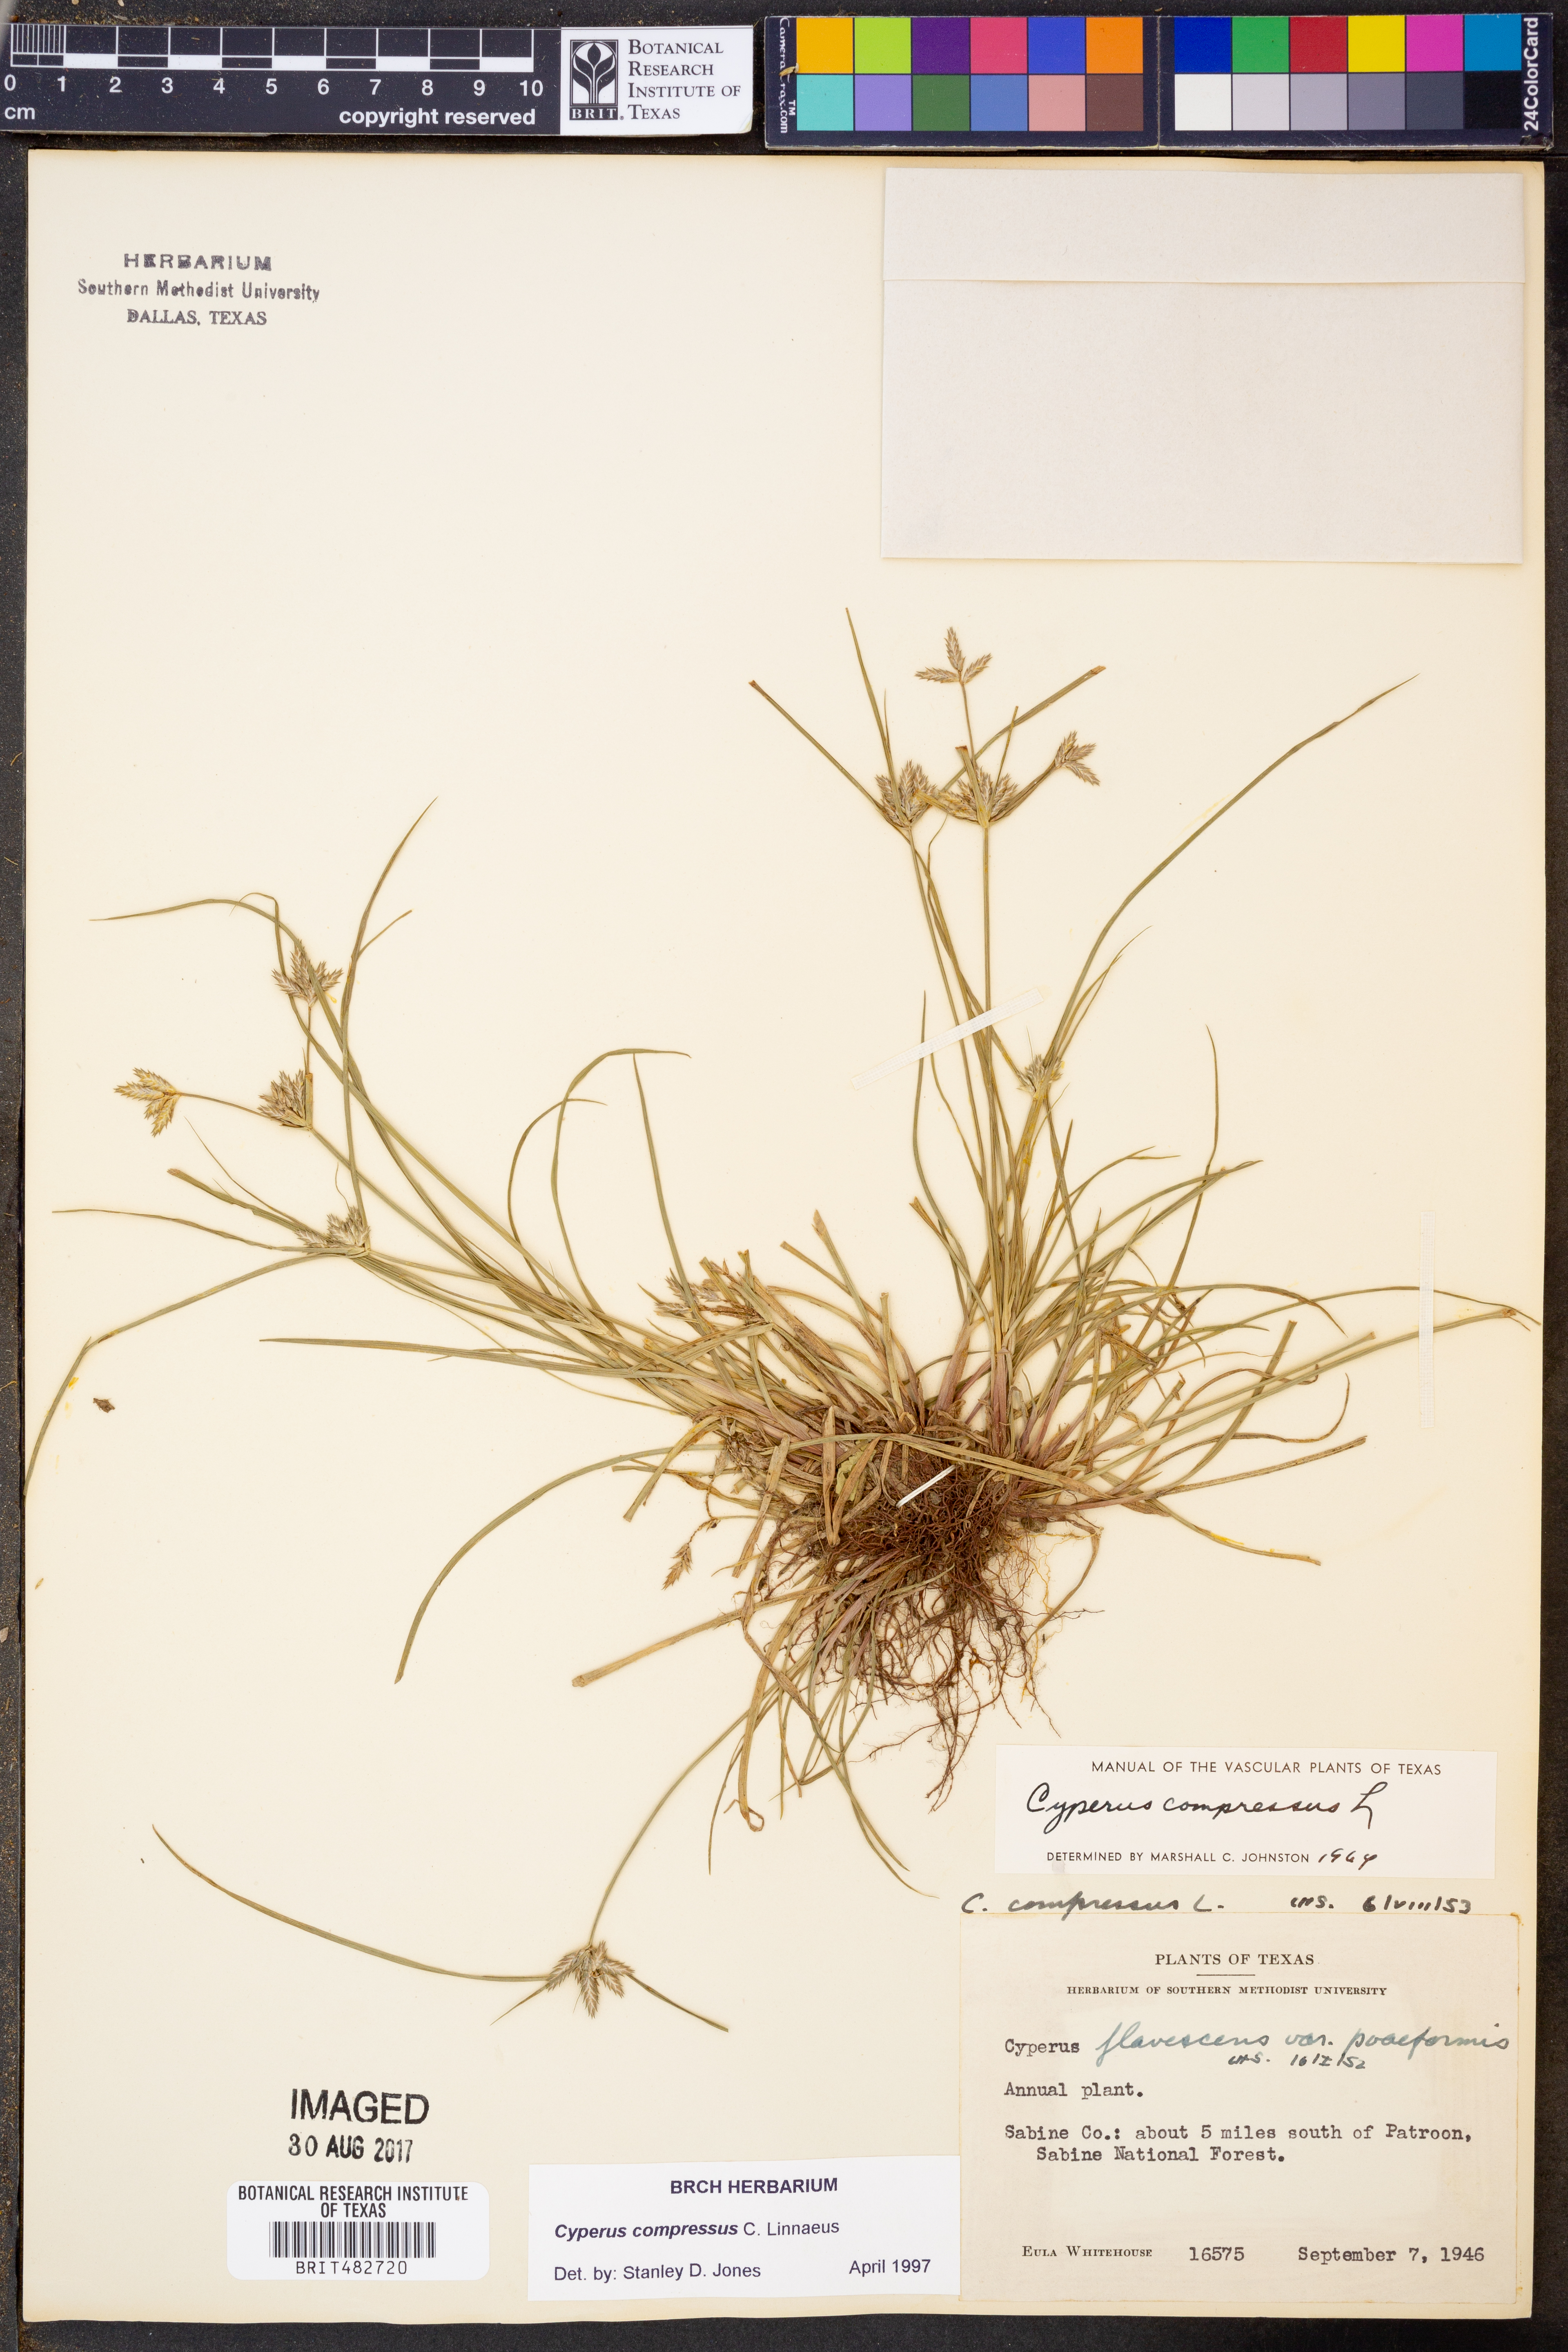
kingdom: Plantae
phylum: Tracheophyta
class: Liliopsida
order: Poales
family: Cyperaceae
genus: Cyperus
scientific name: Cyperus compressus
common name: Poorland flatsedge
